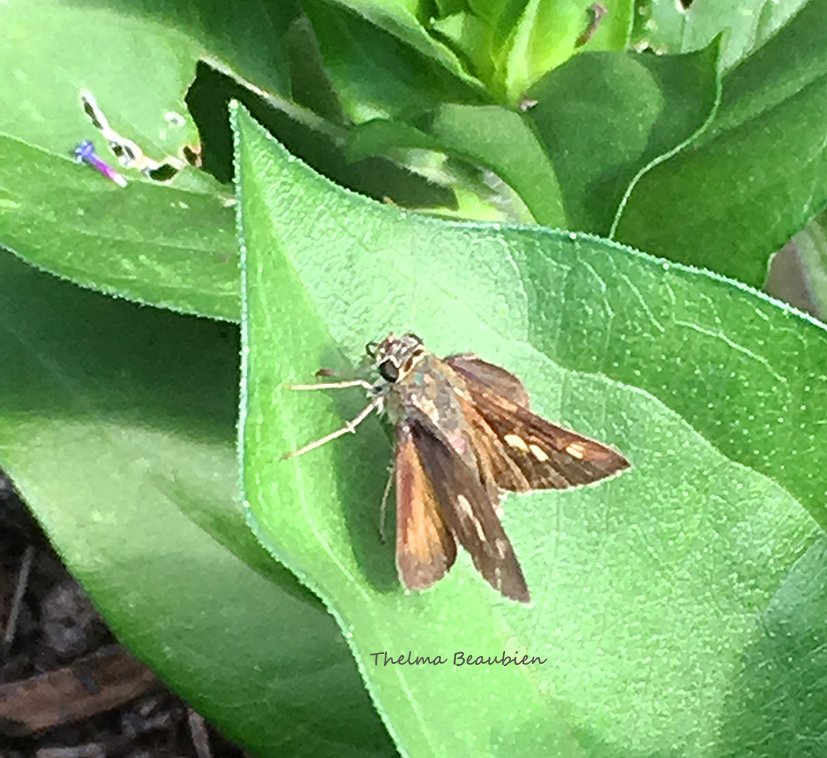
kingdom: Animalia
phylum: Arthropoda
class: Insecta
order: Lepidoptera
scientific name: Lepidoptera
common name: Butterflies
